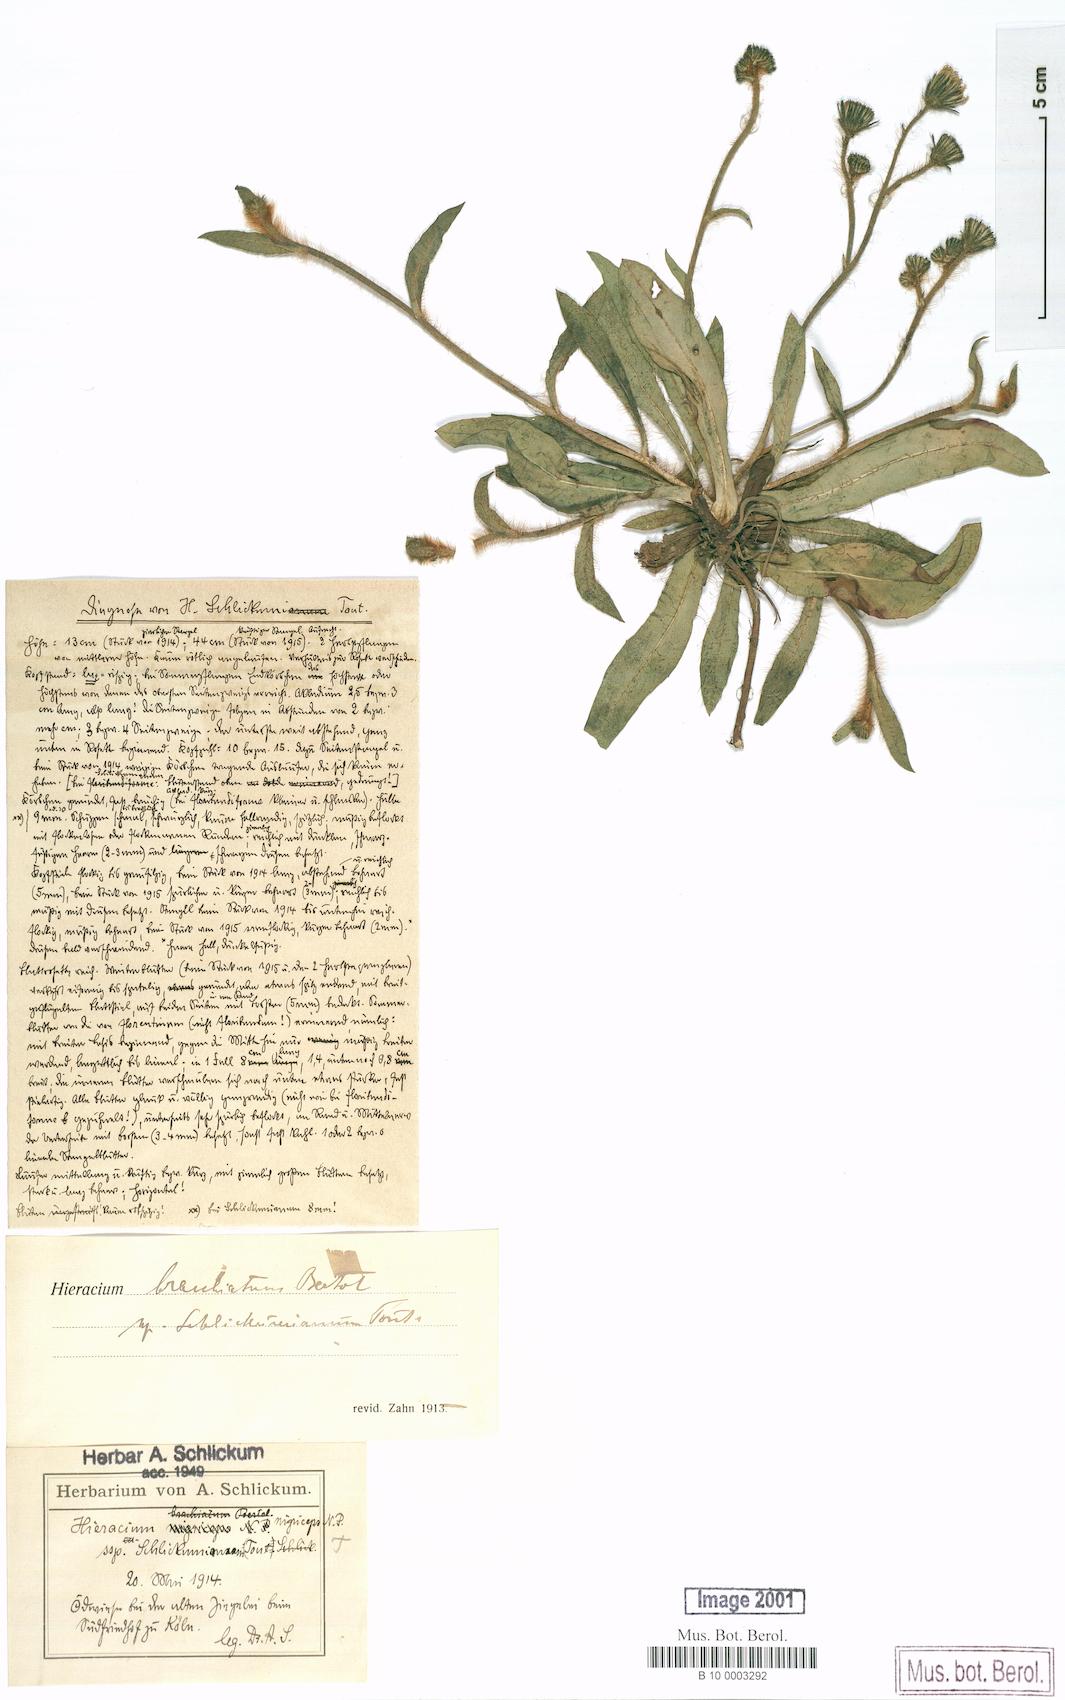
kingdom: Plantae
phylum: Tracheophyta
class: Magnoliopsida
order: Asterales
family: Asteraceae
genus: Pilosella
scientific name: Pilosella iserana
